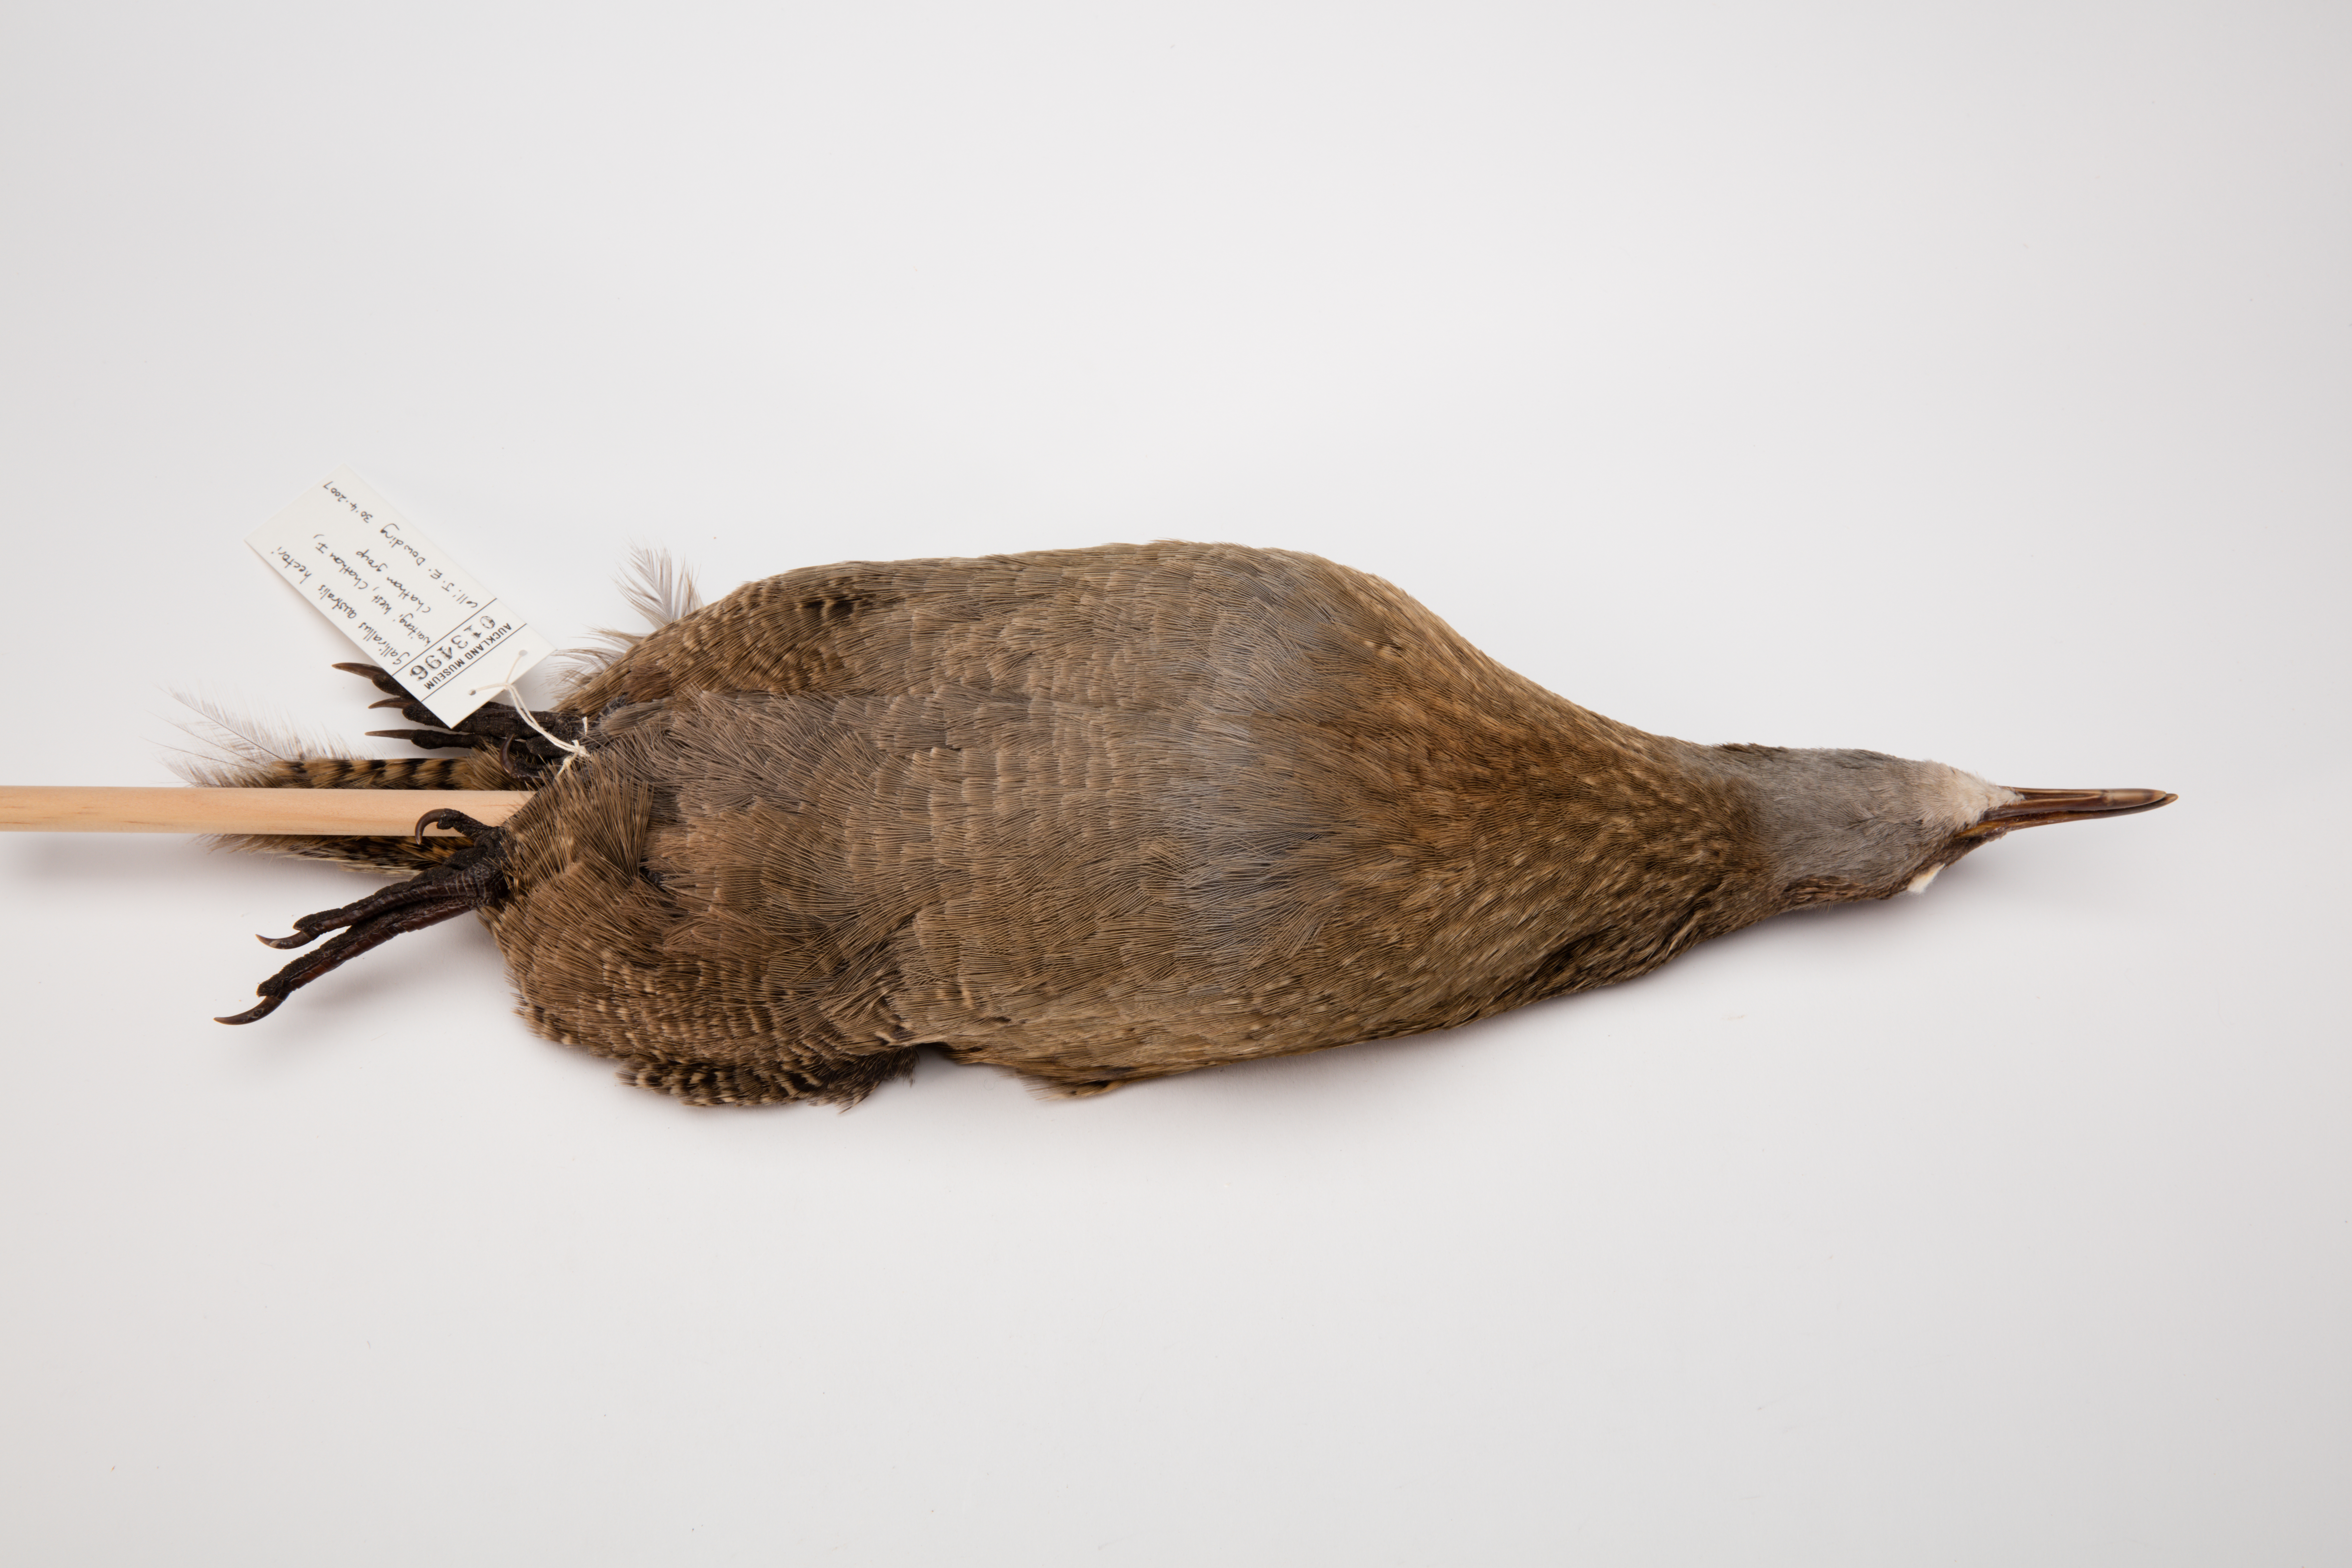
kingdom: Animalia
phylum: Chordata
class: Aves
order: Gruiformes
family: Rallidae
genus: Gallirallus
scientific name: Gallirallus australis
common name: Weka
